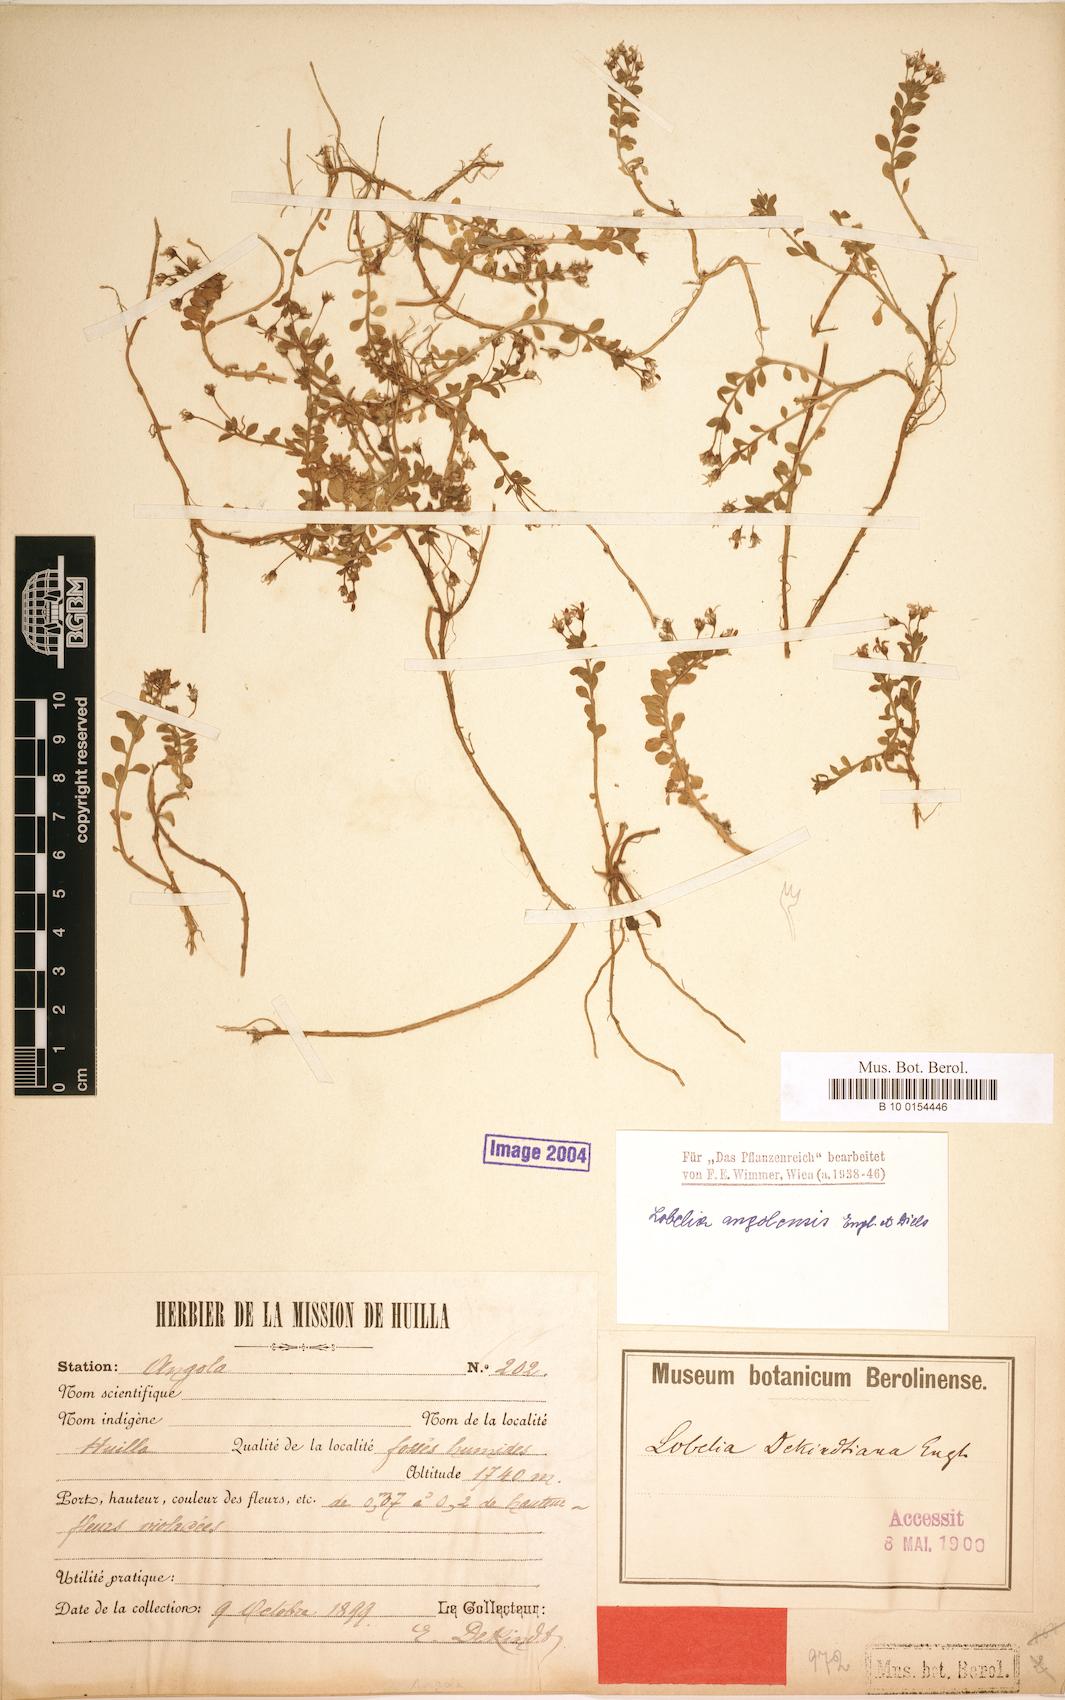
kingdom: Plantae
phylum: Tracheophyta
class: Magnoliopsida
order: Asterales
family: Campanulaceae
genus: Lobelia
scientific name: Lobelia sonderiana
